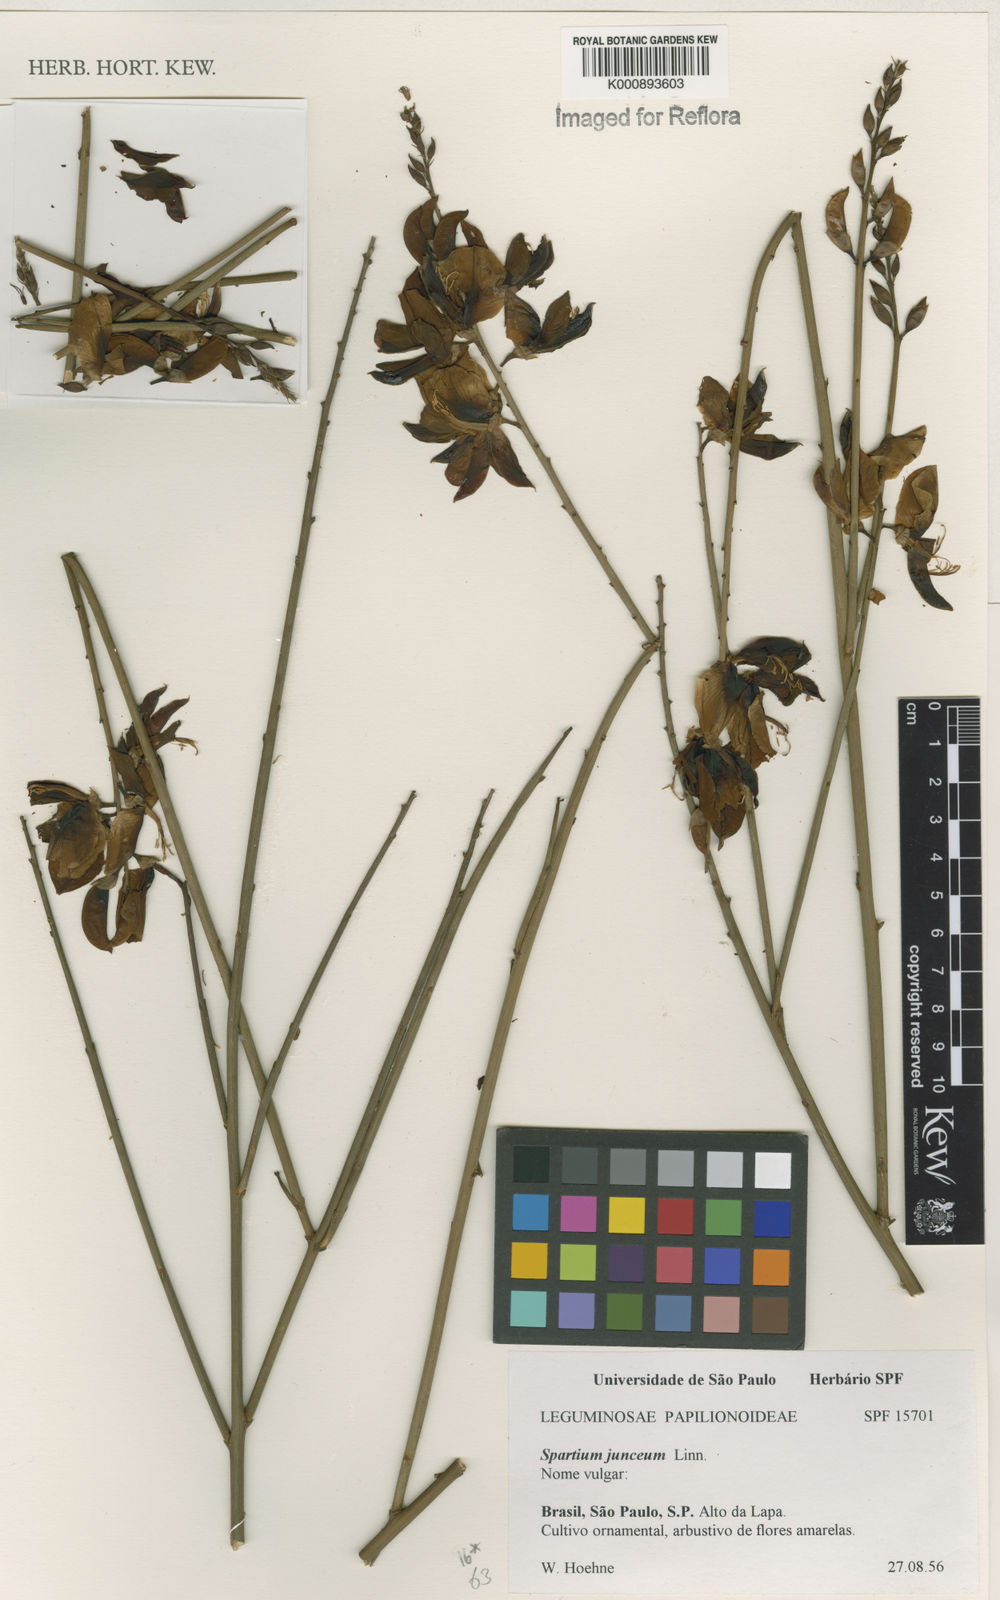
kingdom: Plantae
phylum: Tracheophyta
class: Magnoliopsida
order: Fabales
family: Fabaceae
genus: Spartium
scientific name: Spartium junceum
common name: Spanish broom
